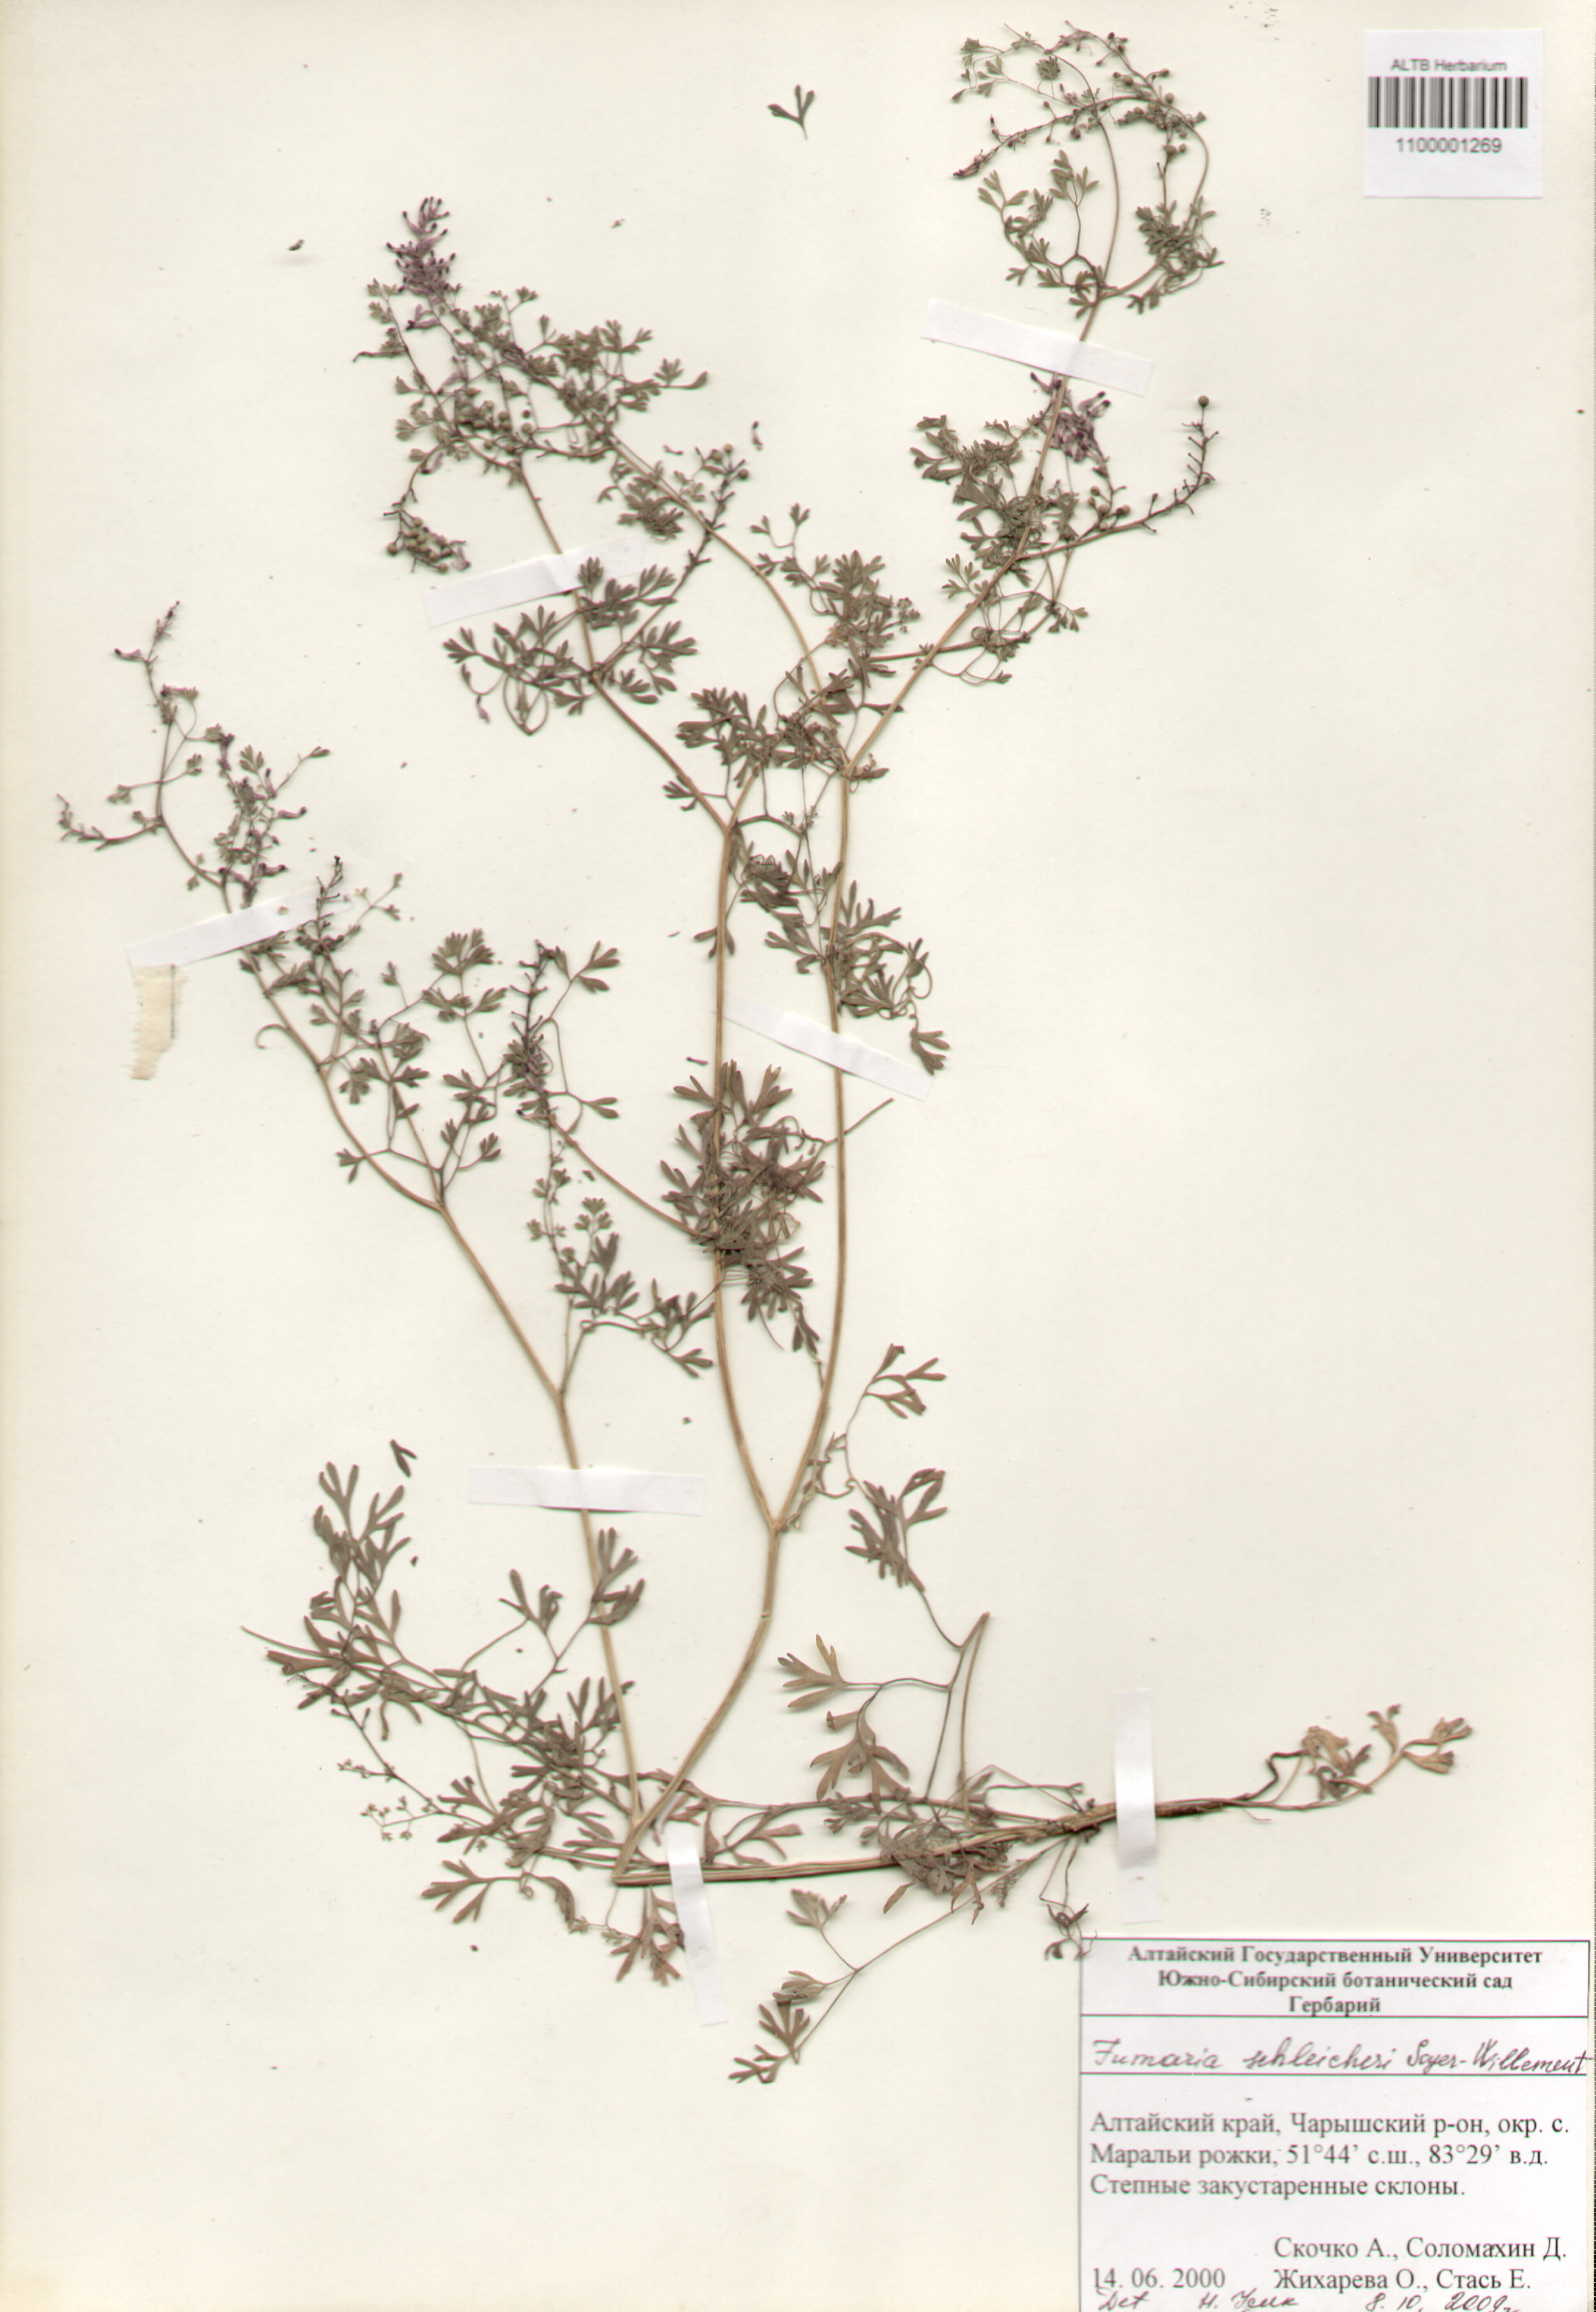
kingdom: Plantae
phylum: Tracheophyta
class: Magnoliopsida
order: Ranunculales
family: Papaveraceae
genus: Fumaria
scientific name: Fumaria schleicheri
